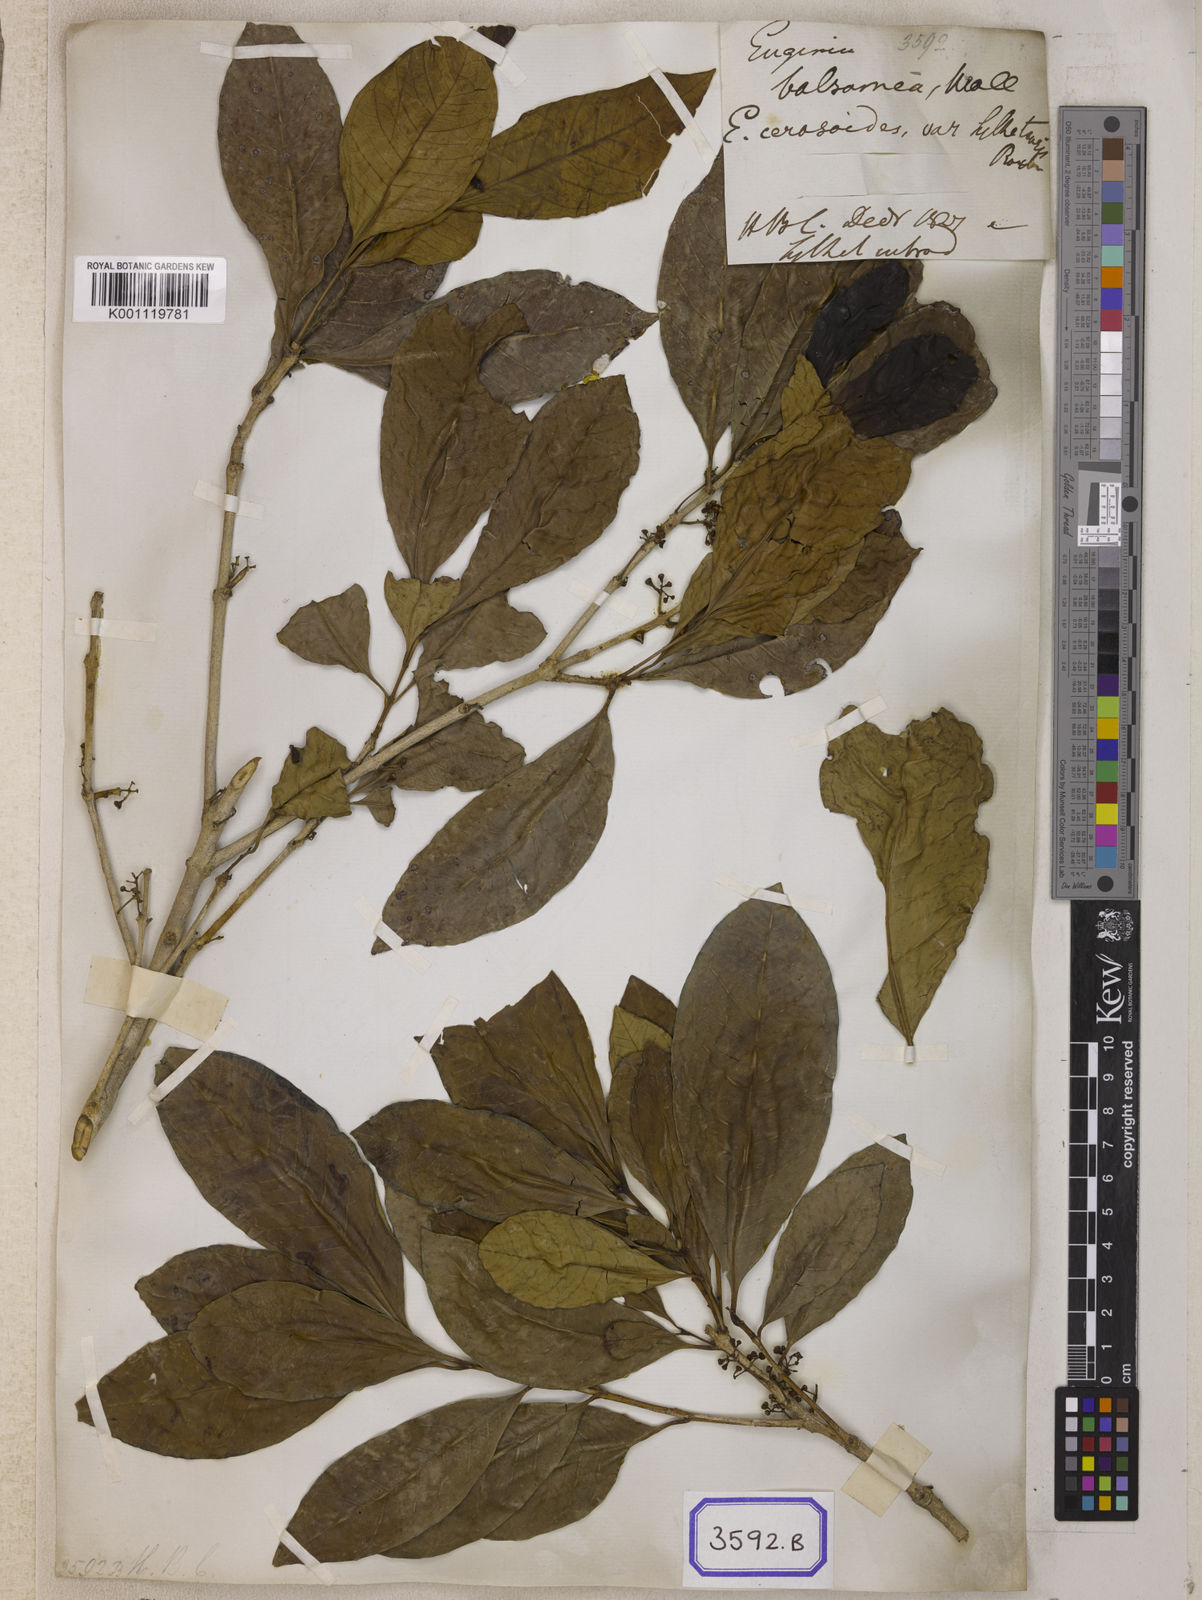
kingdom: Plantae
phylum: Tracheophyta
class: Magnoliopsida
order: Myrtales
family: Myrtaceae
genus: Syzygium
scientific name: Syzygium balsameum
